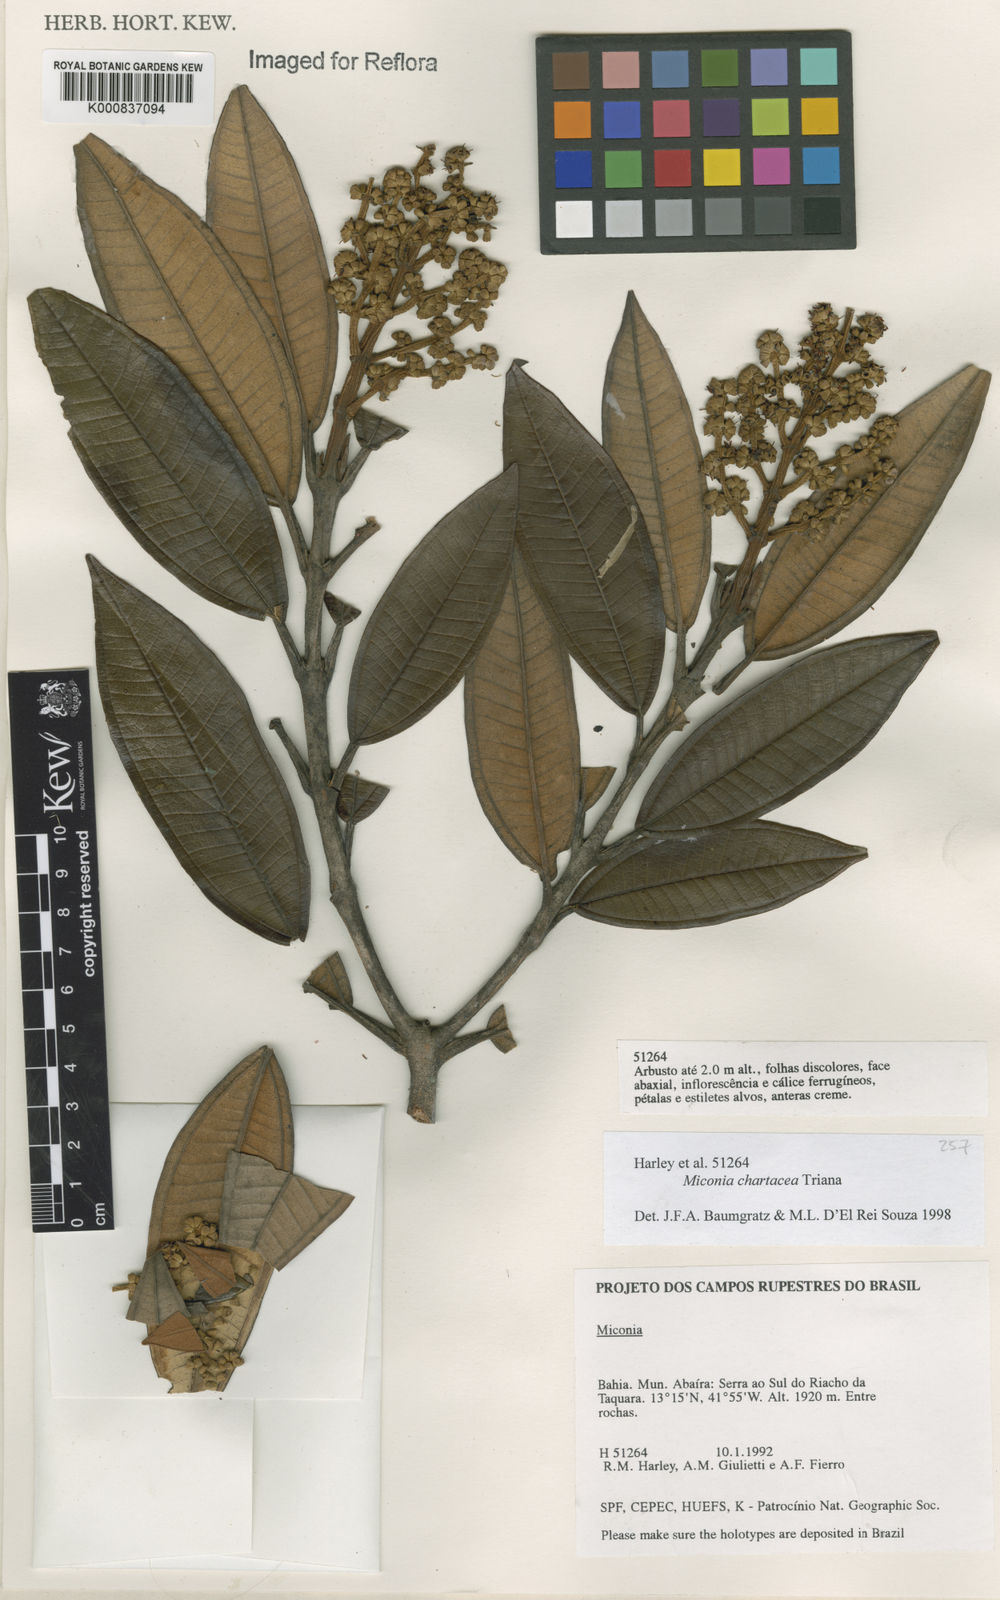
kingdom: Plantae
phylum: Tracheophyta
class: Magnoliopsida
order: Myrtales
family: Melastomataceae
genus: Miconia
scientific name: Miconia chartacea
